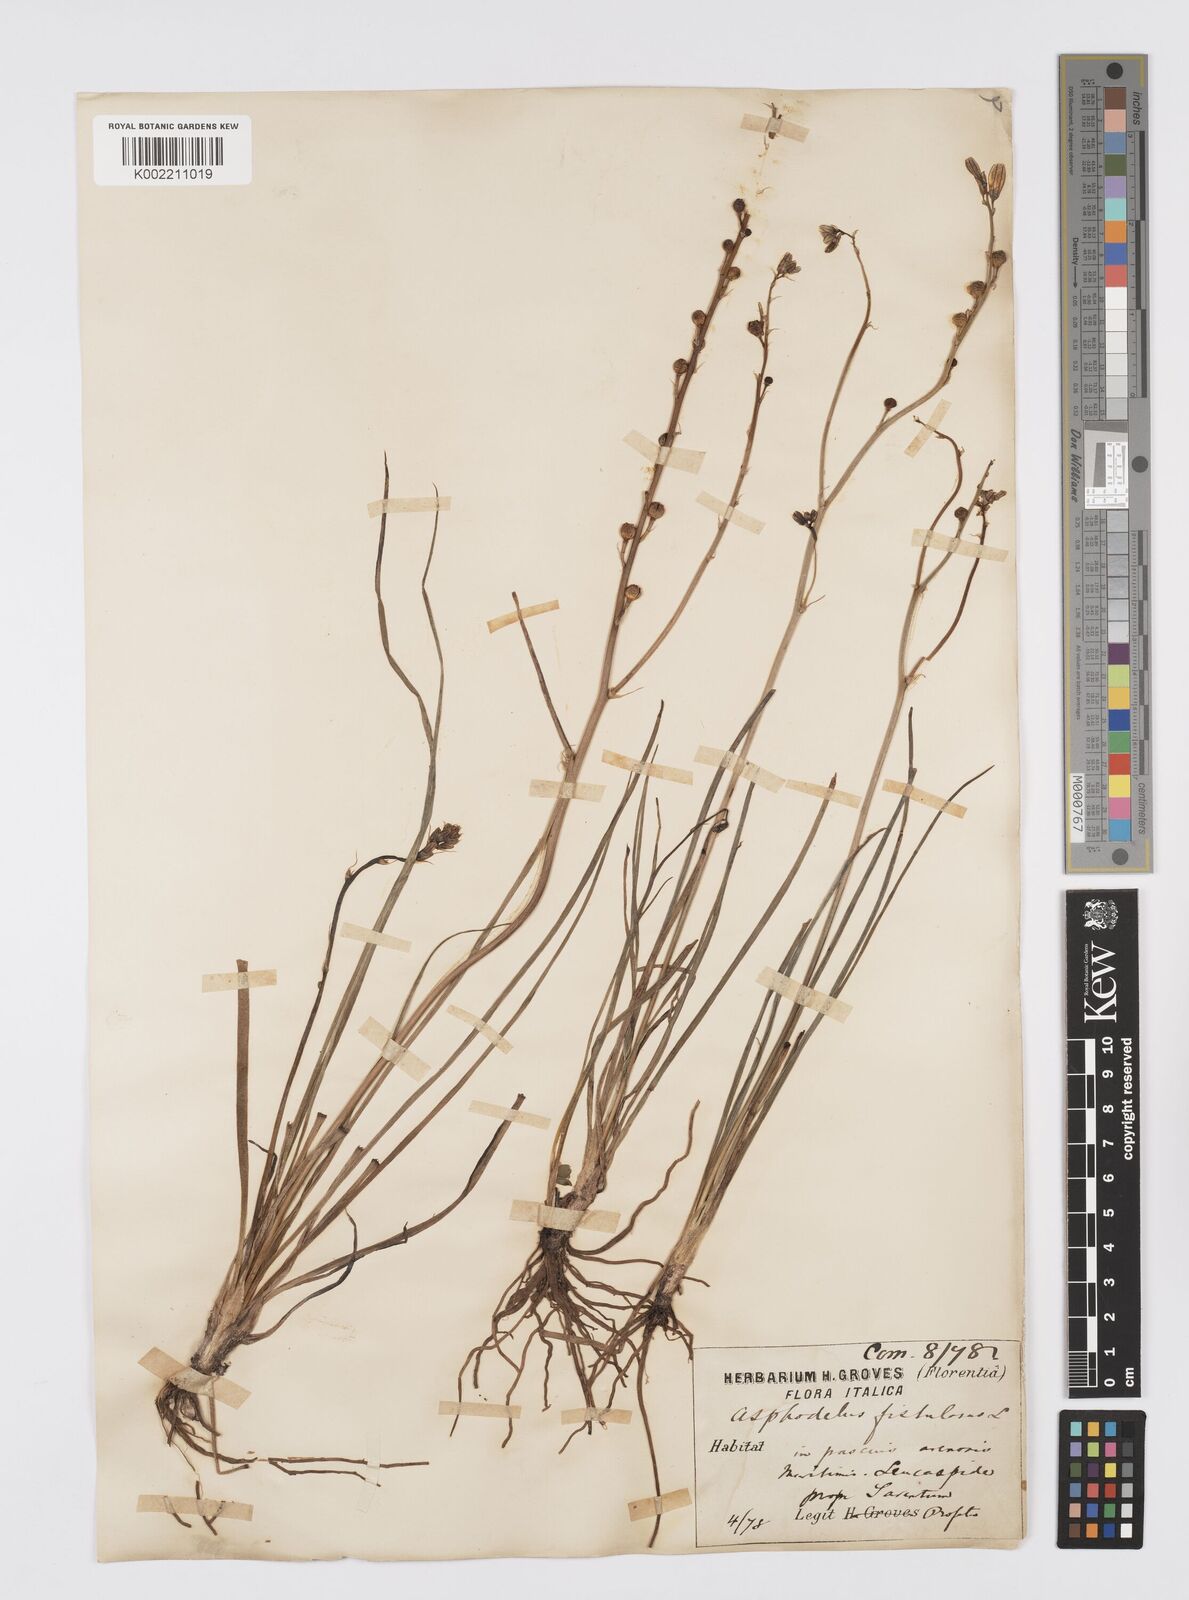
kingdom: Plantae
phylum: Tracheophyta
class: Liliopsida
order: Asparagales
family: Asphodelaceae
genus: Asphodelus
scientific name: Asphodelus fistulosus
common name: Onionweed
